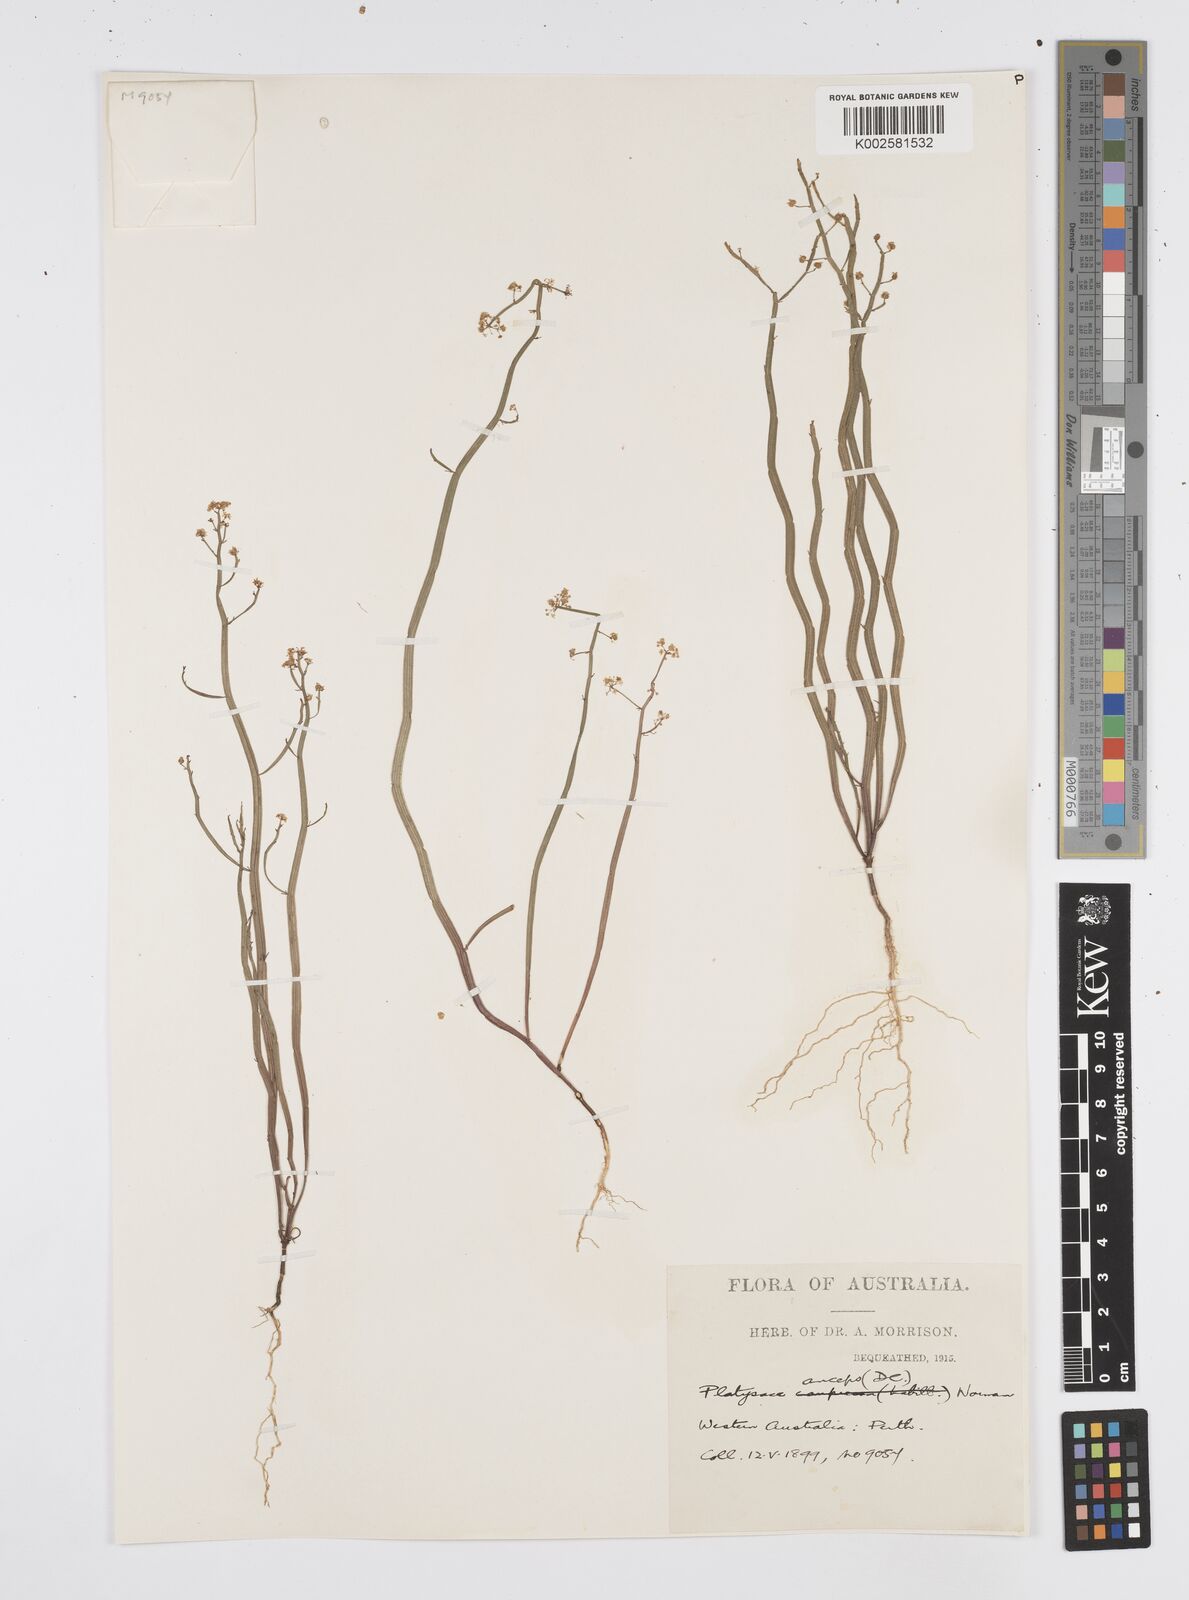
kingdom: Plantae
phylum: Tracheophyta
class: Magnoliopsida
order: Apiales
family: Apiaceae
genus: Centella
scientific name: Centella
